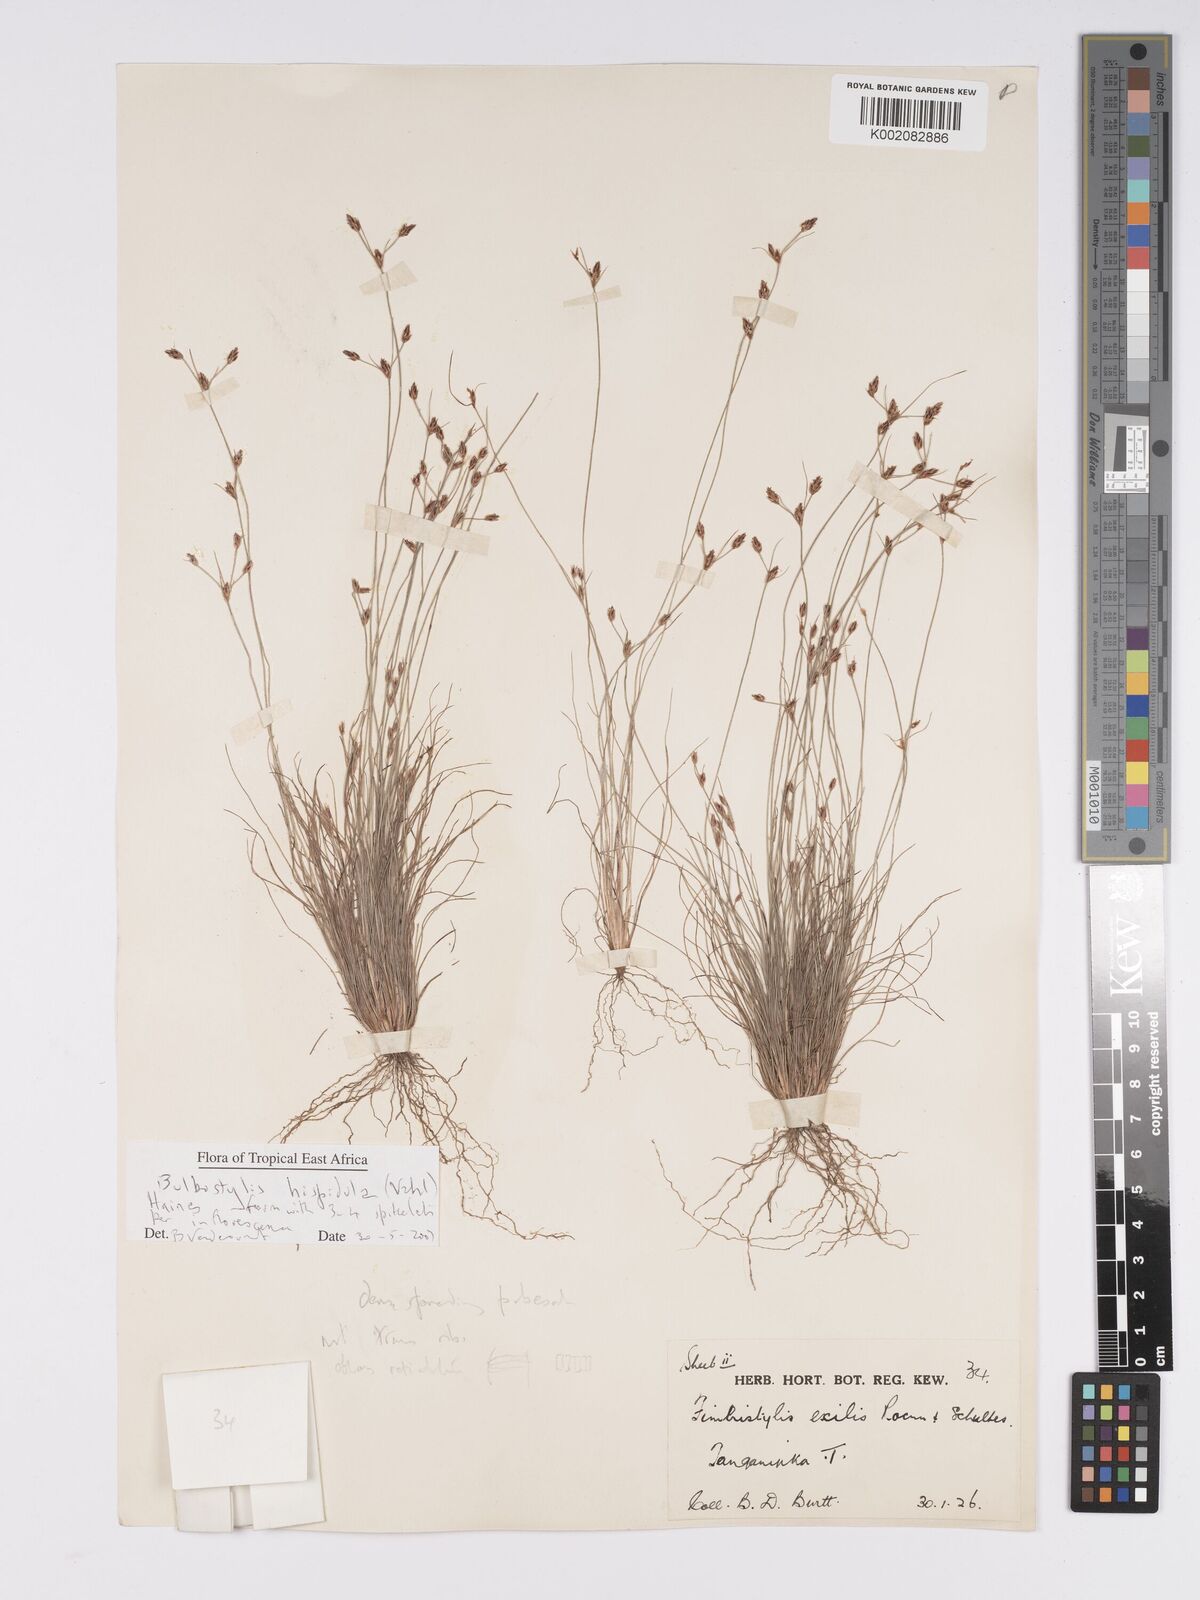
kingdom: Plantae
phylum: Tracheophyta
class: Liliopsida
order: Poales
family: Cyperaceae
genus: Bulbostylis
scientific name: Bulbostylis hispidula
